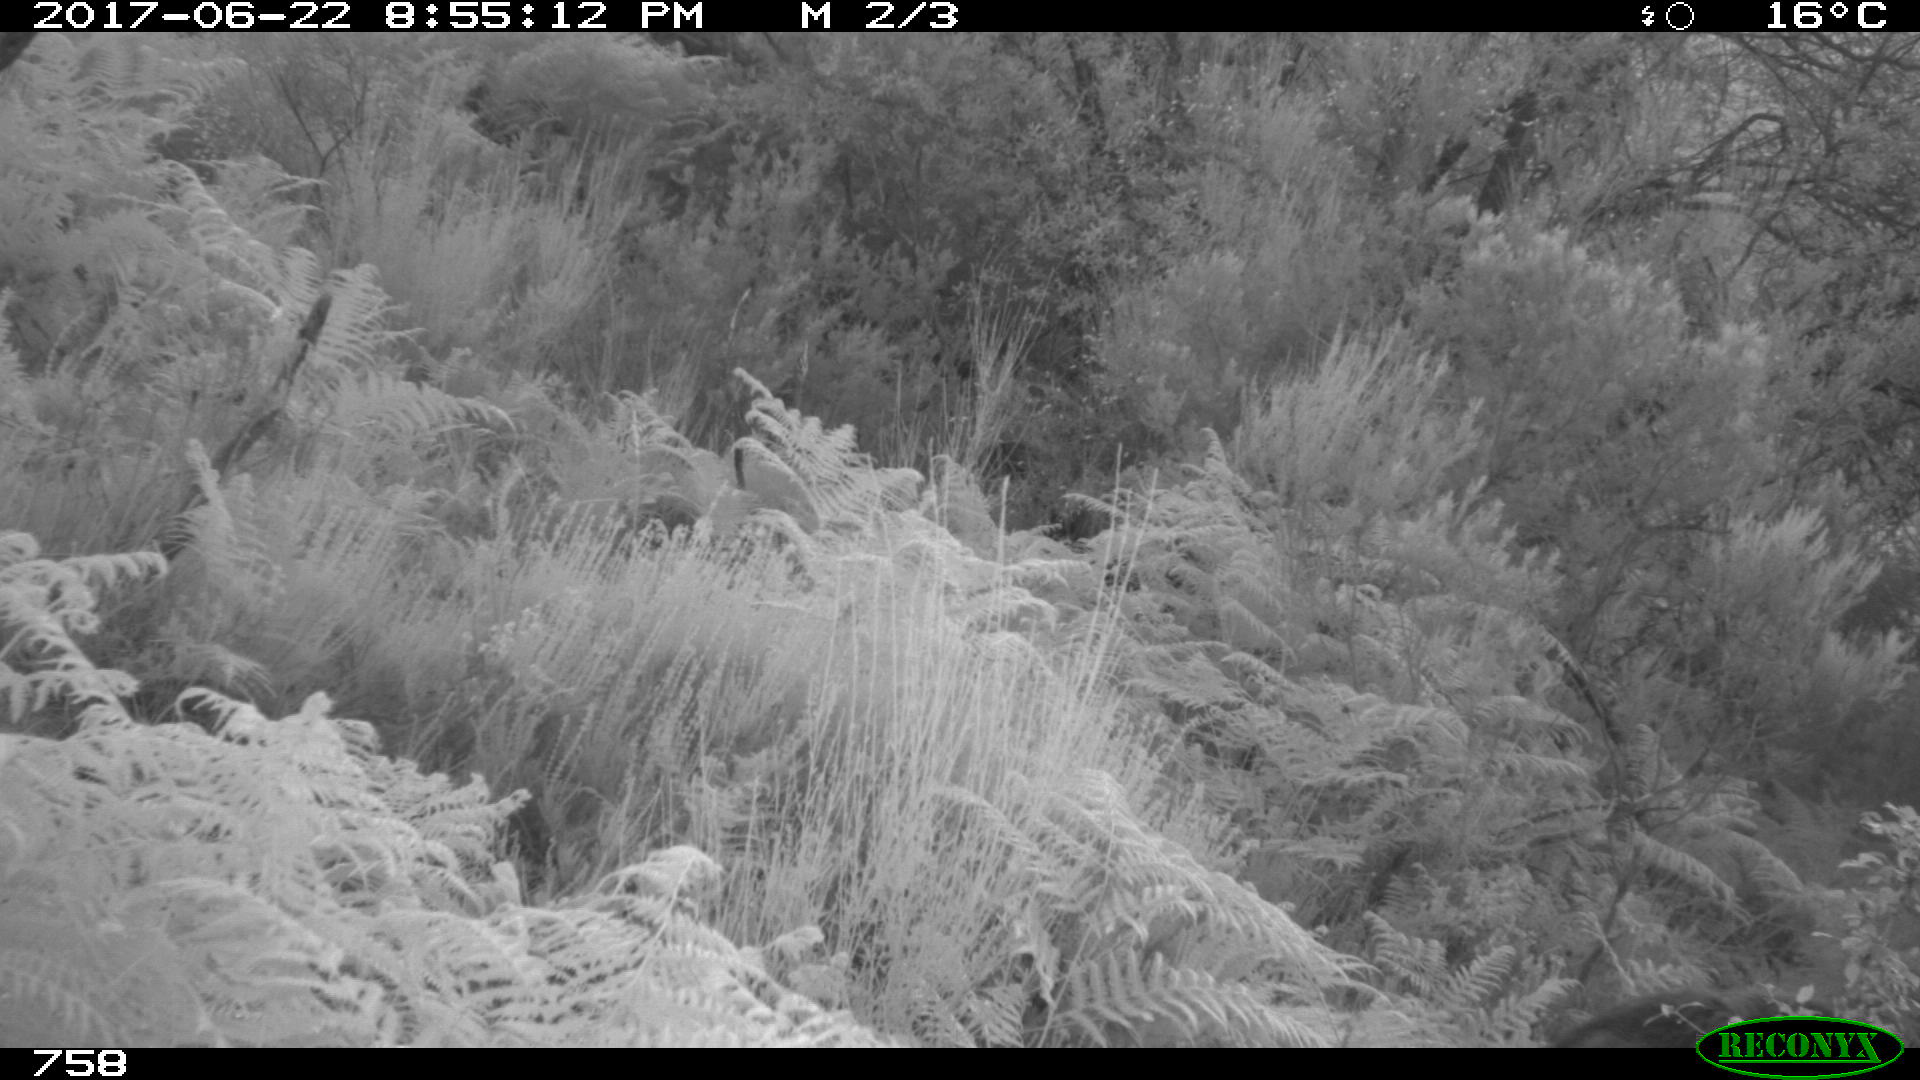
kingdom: Animalia
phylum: Chordata
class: Mammalia
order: Artiodactyla
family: Suidae
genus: Sus
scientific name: Sus scrofa
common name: Wild boar
